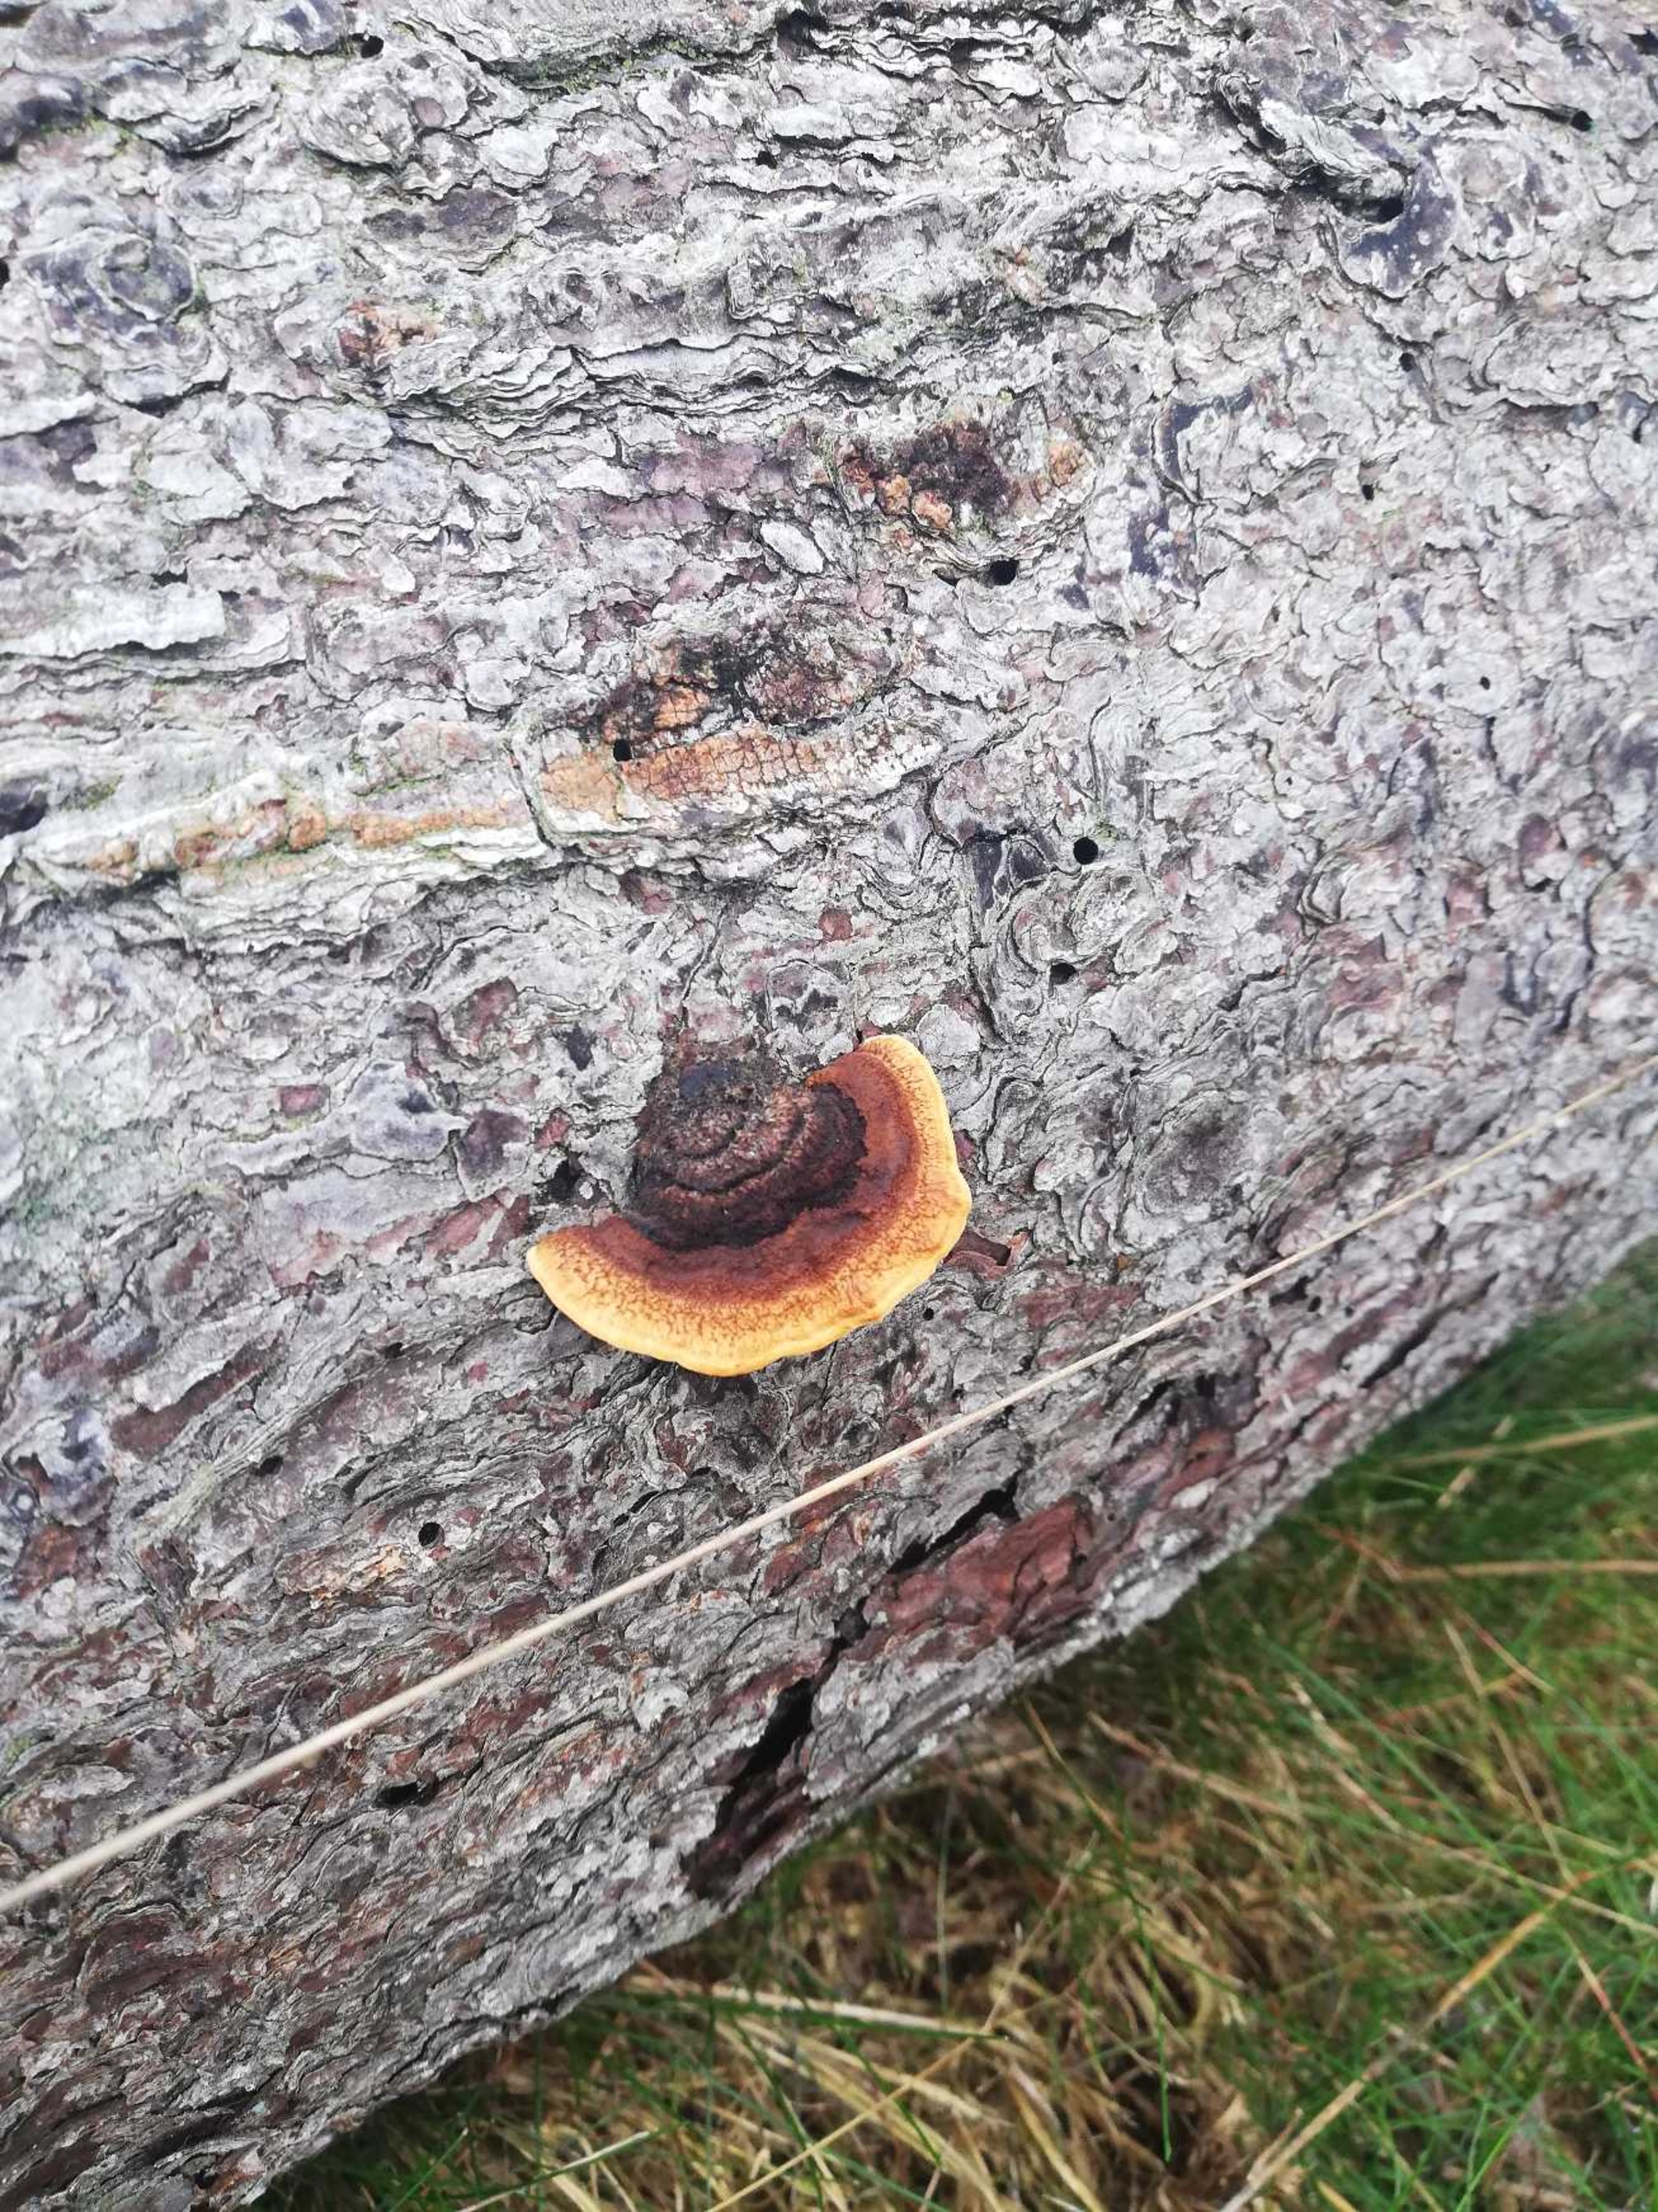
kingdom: Fungi
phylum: Basidiomycota
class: Agaricomycetes
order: Gloeophyllales
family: Gloeophyllaceae
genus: Gloeophyllum
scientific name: Gloeophyllum sepiarium
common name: Fyrre-korkhat
